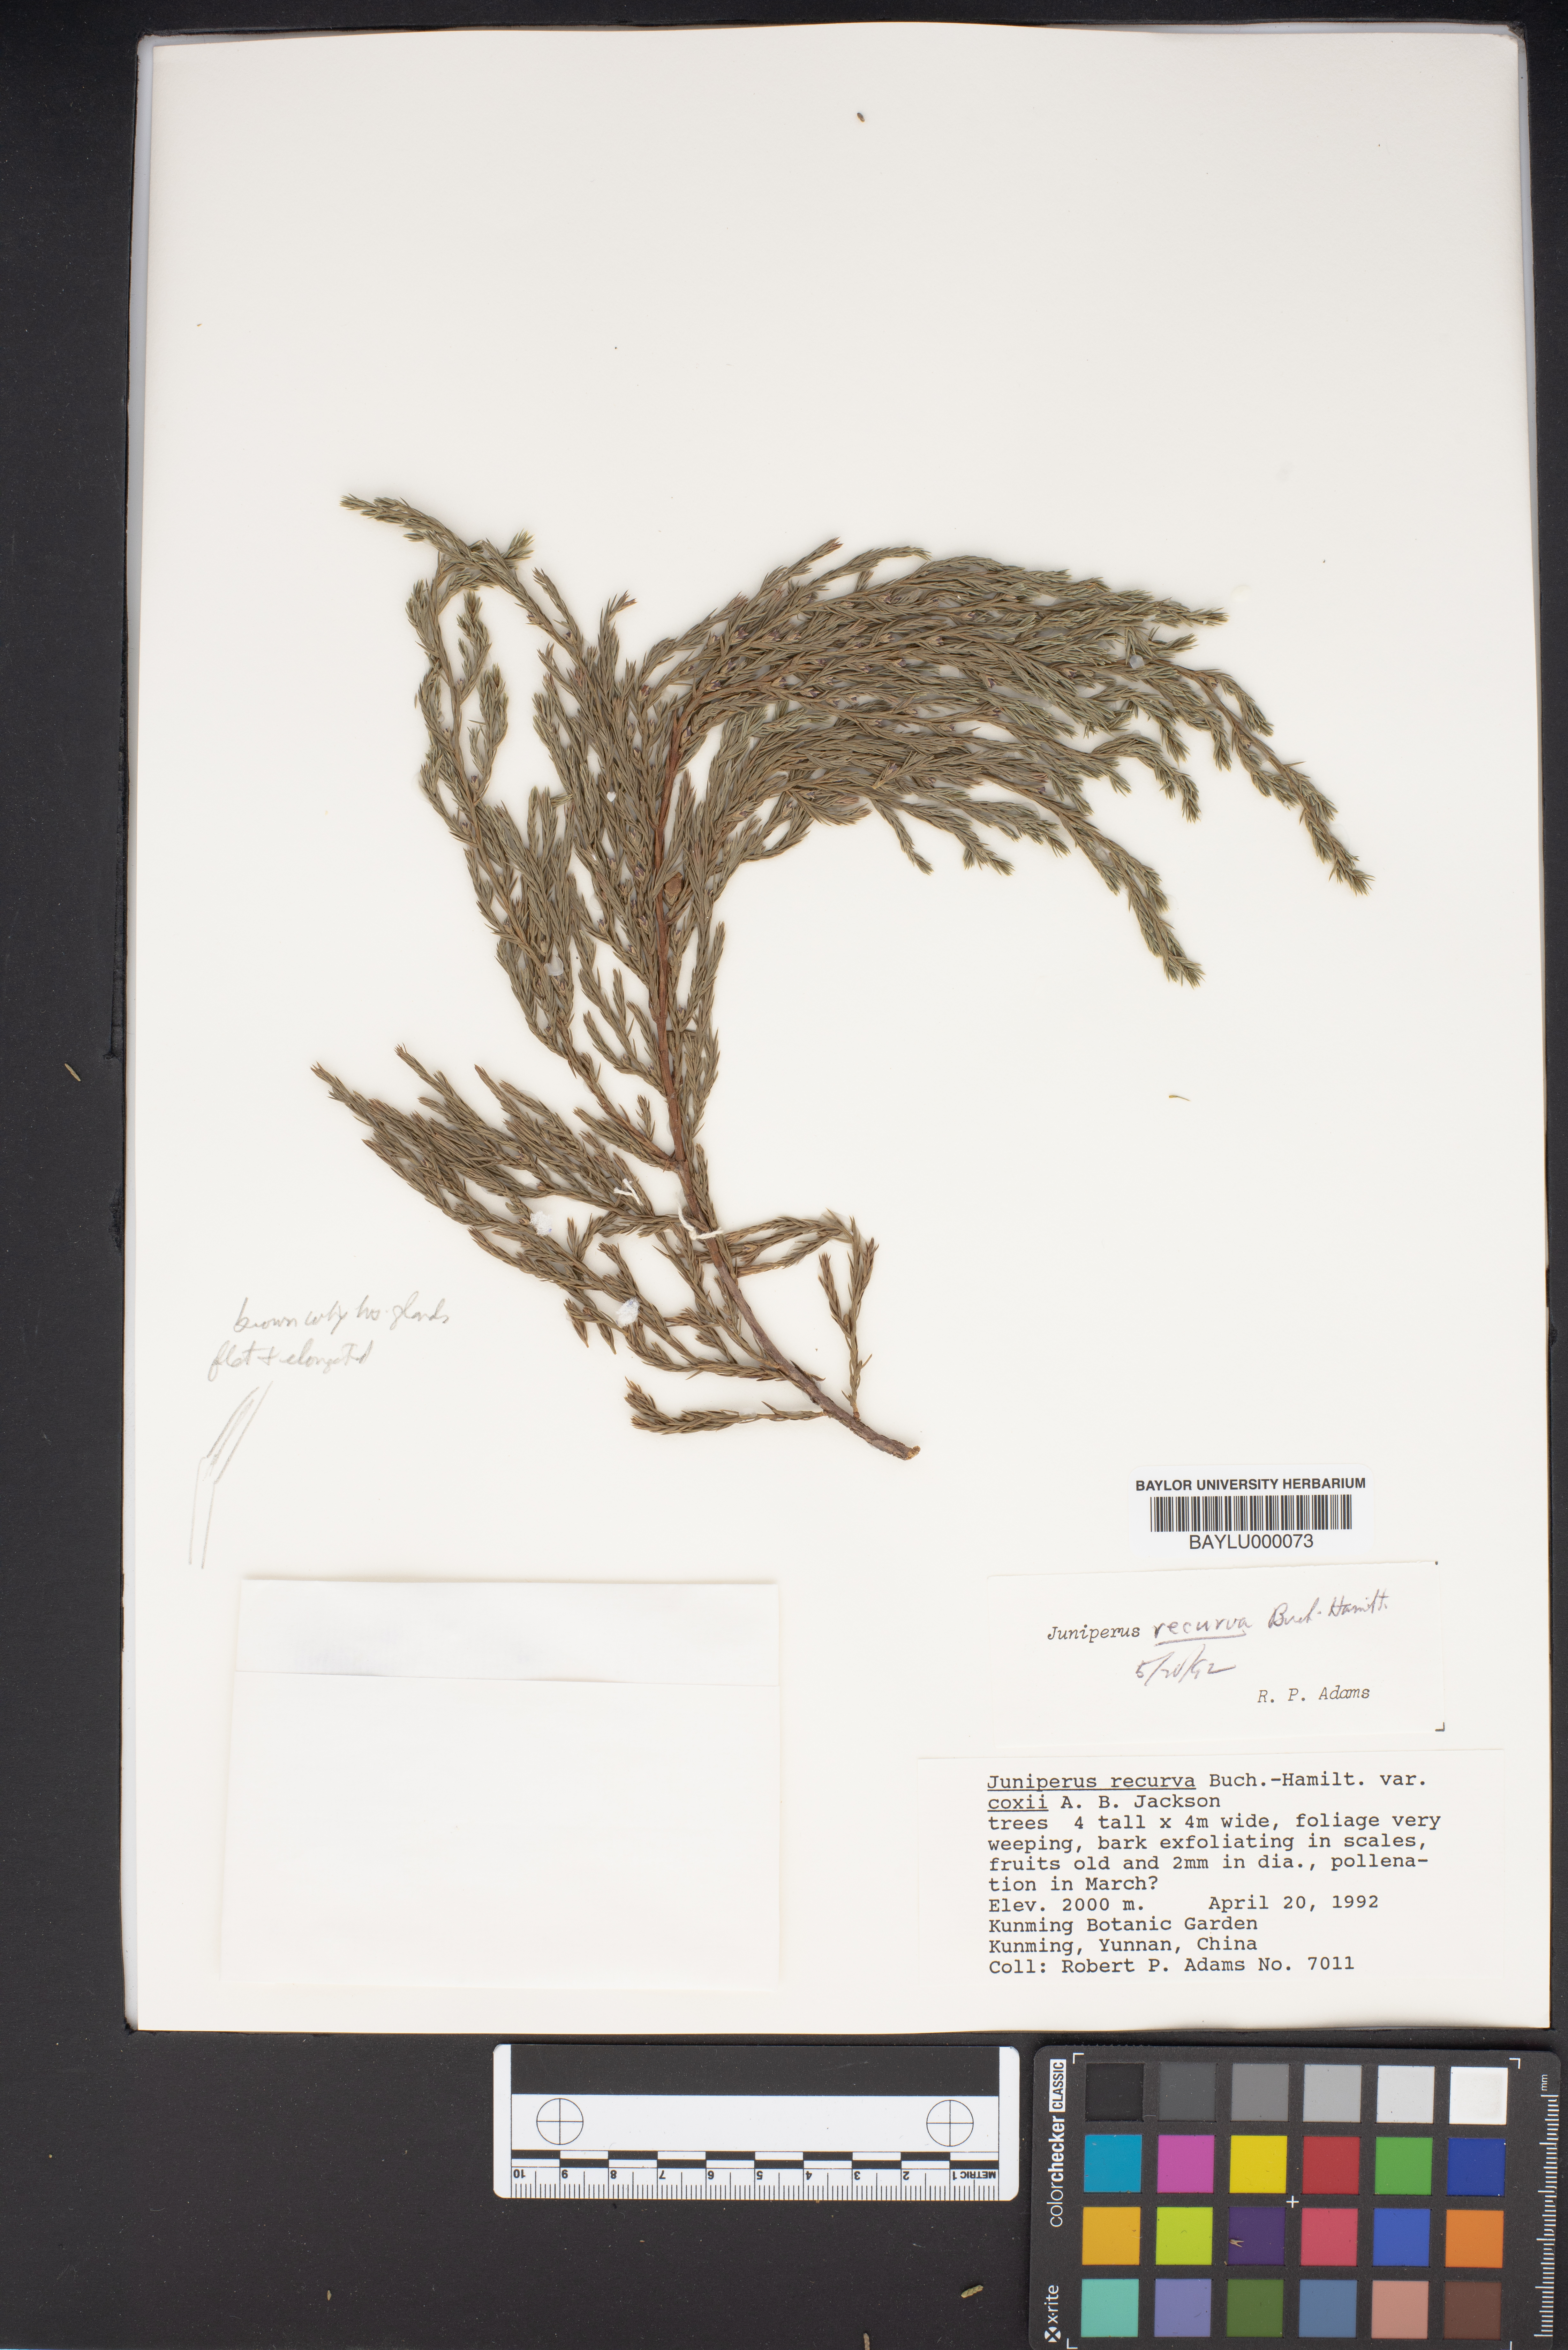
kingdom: Plantae
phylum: Tracheophyta
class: Pinopsida
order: Pinales
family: Cupressaceae
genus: Juniperus
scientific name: Juniperus recurva
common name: Drooping juniper
